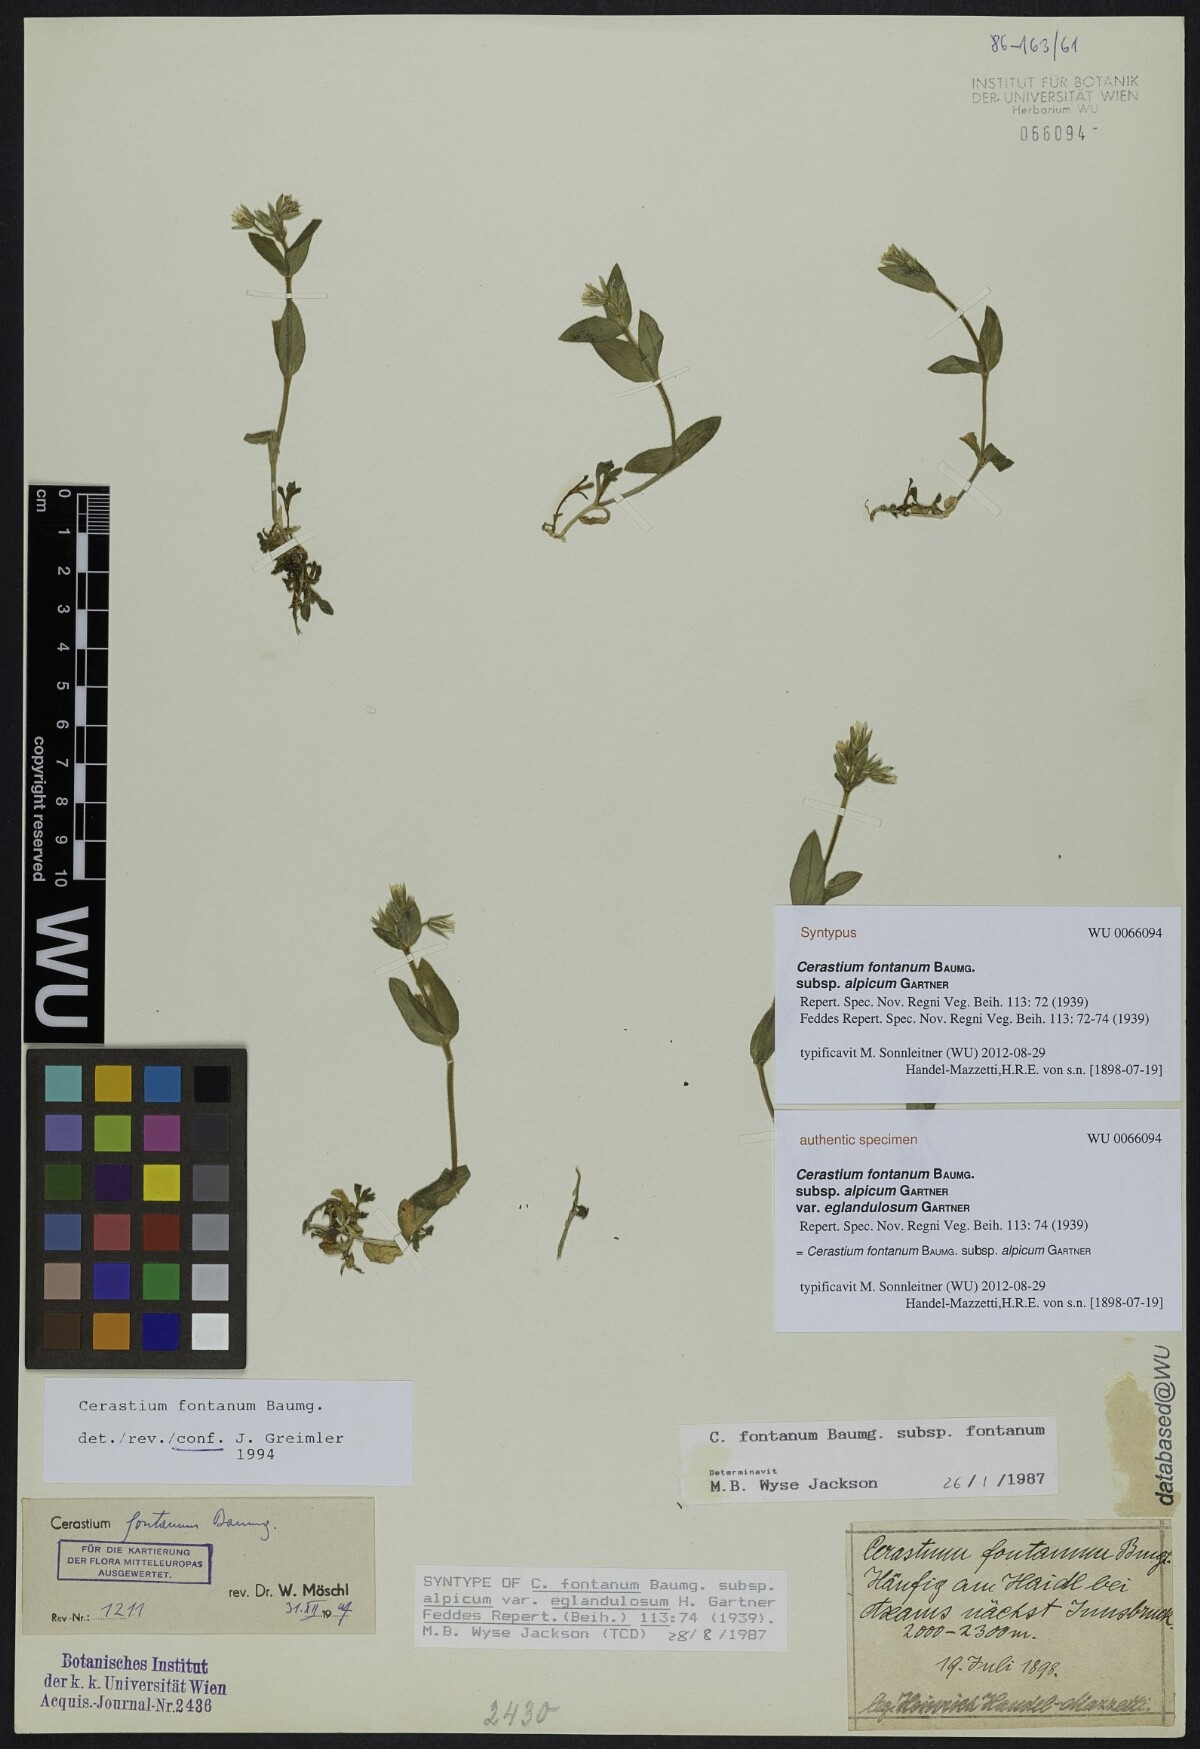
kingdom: Plantae
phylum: Tracheophyta
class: Magnoliopsida
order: Caryophyllales
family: Caryophyllaceae
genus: Cerastium
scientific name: Cerastium fontanum
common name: Common mouse-ear
